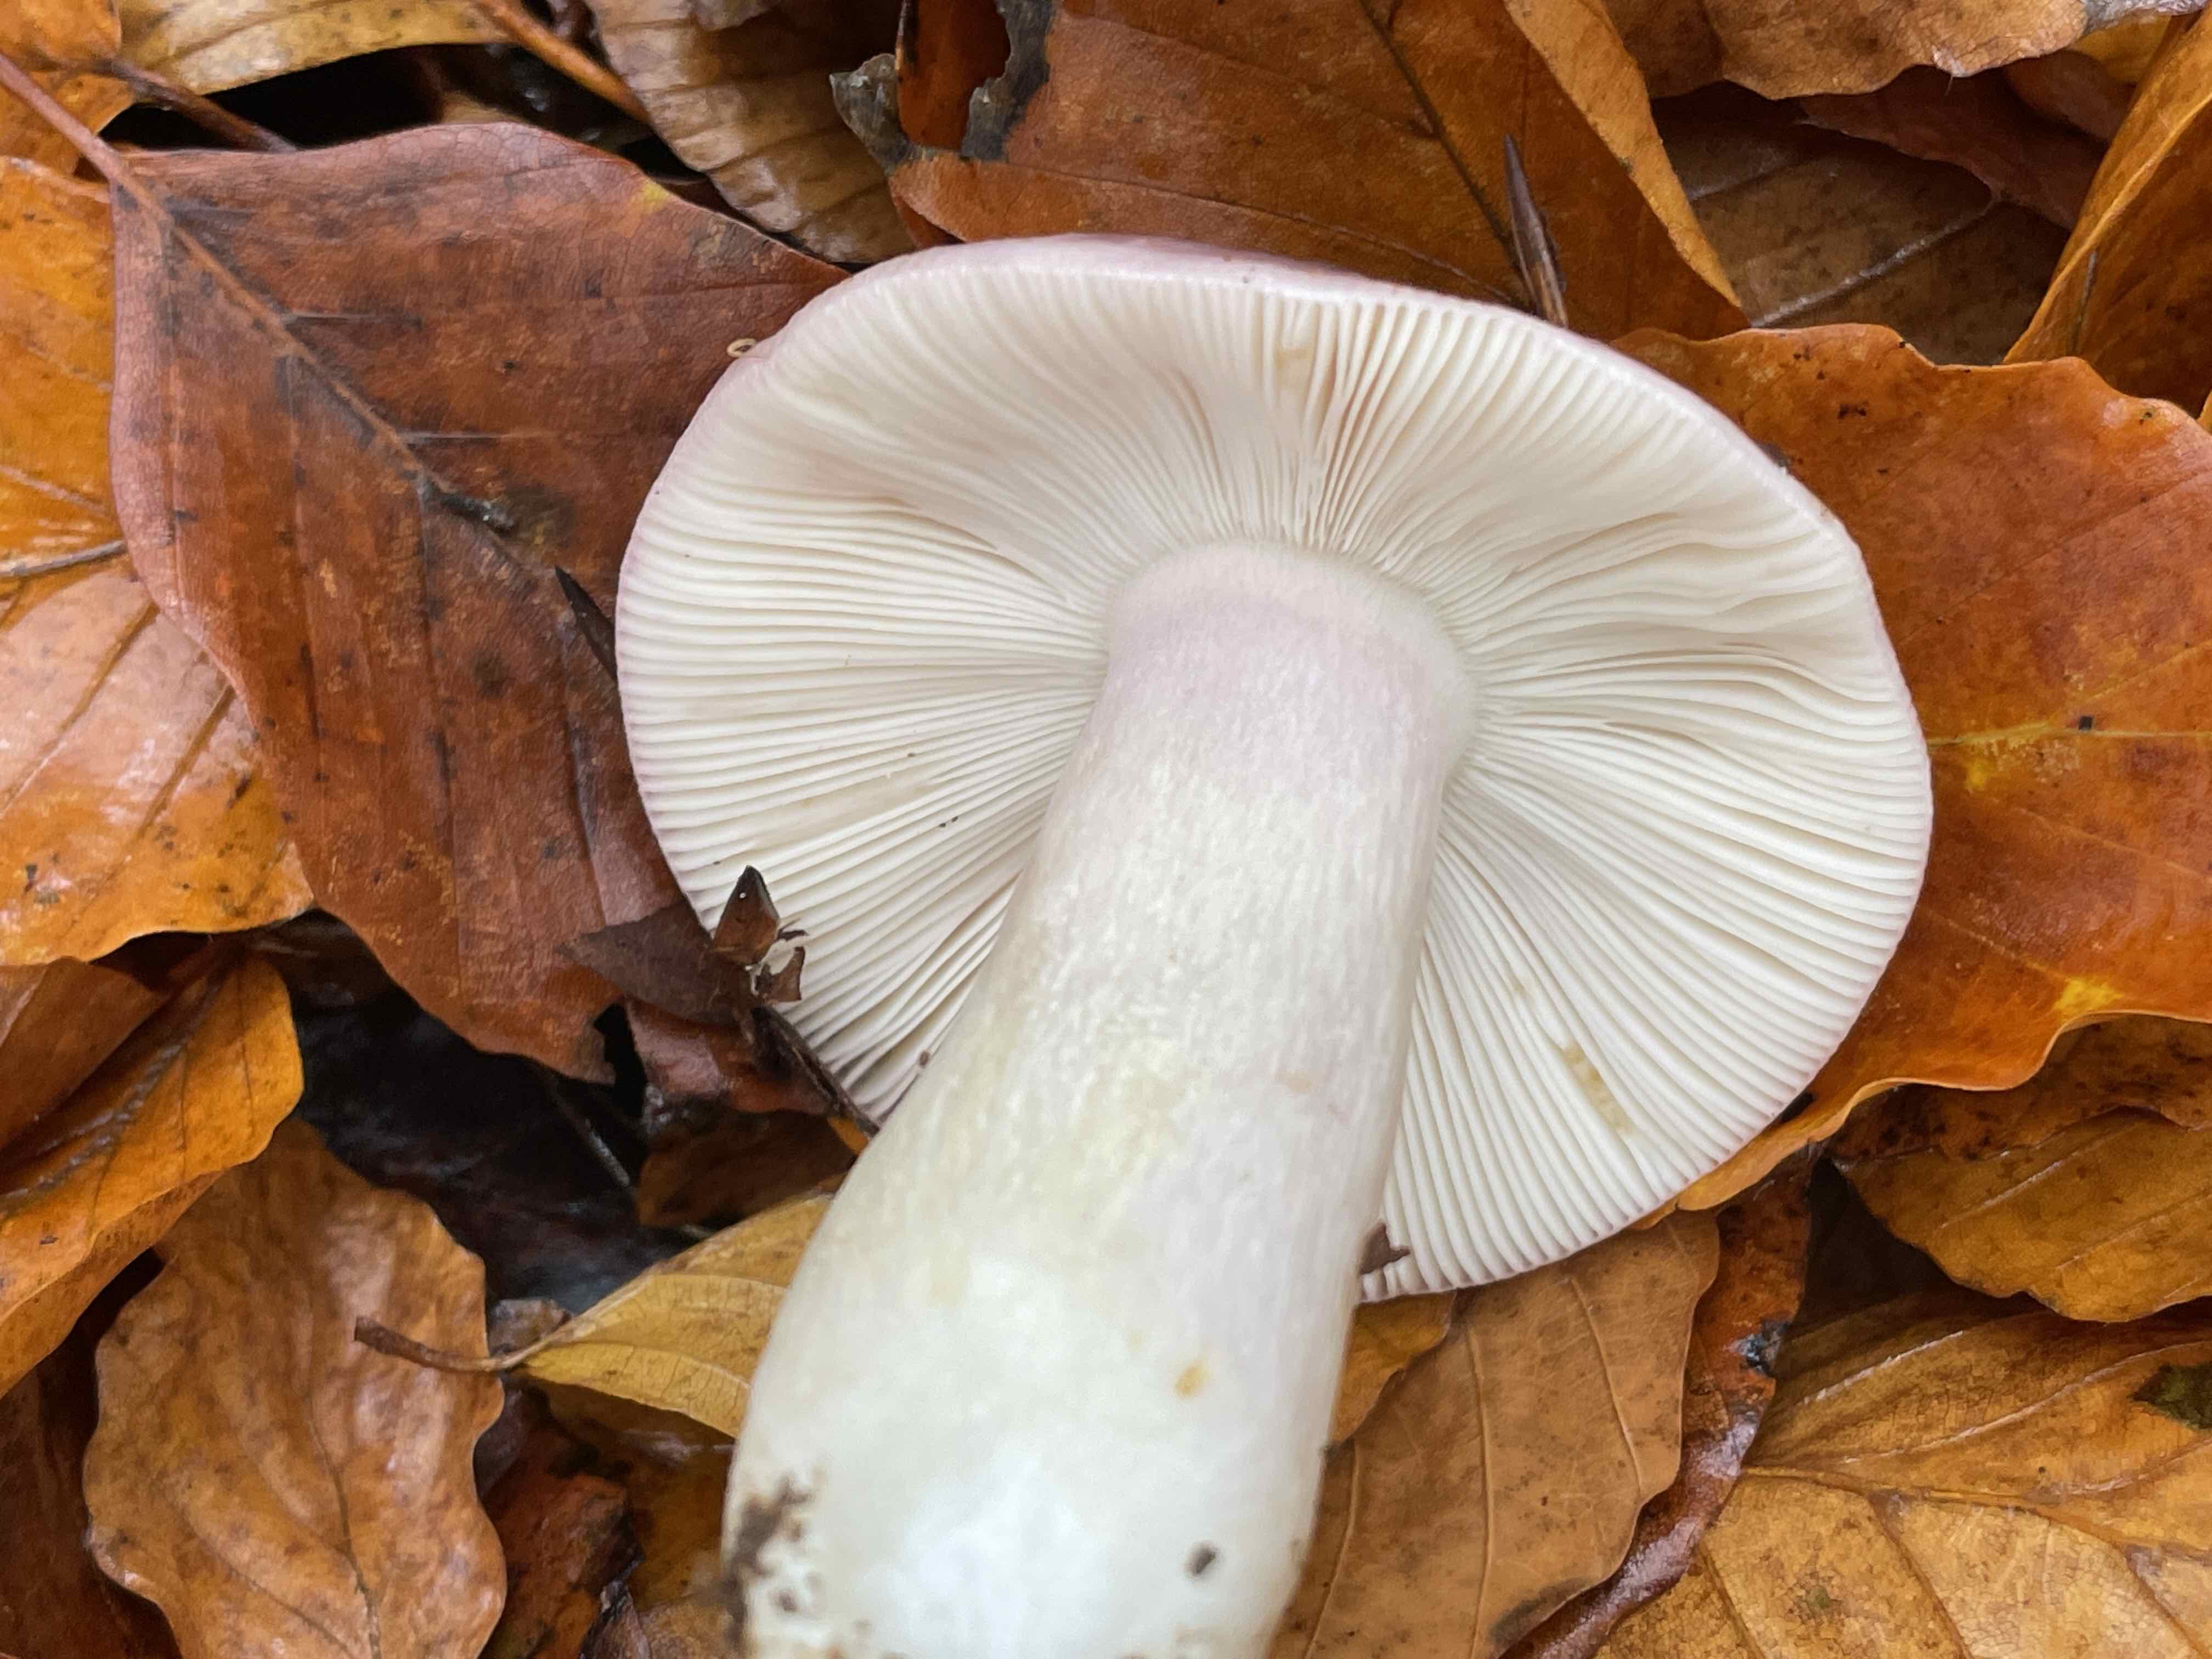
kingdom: Fungi
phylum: Basidiomycota
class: Agaricomycetes
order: Russulales
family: Russulaceae
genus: Russula
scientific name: Russula cyanoxantha
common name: broget skørhat
